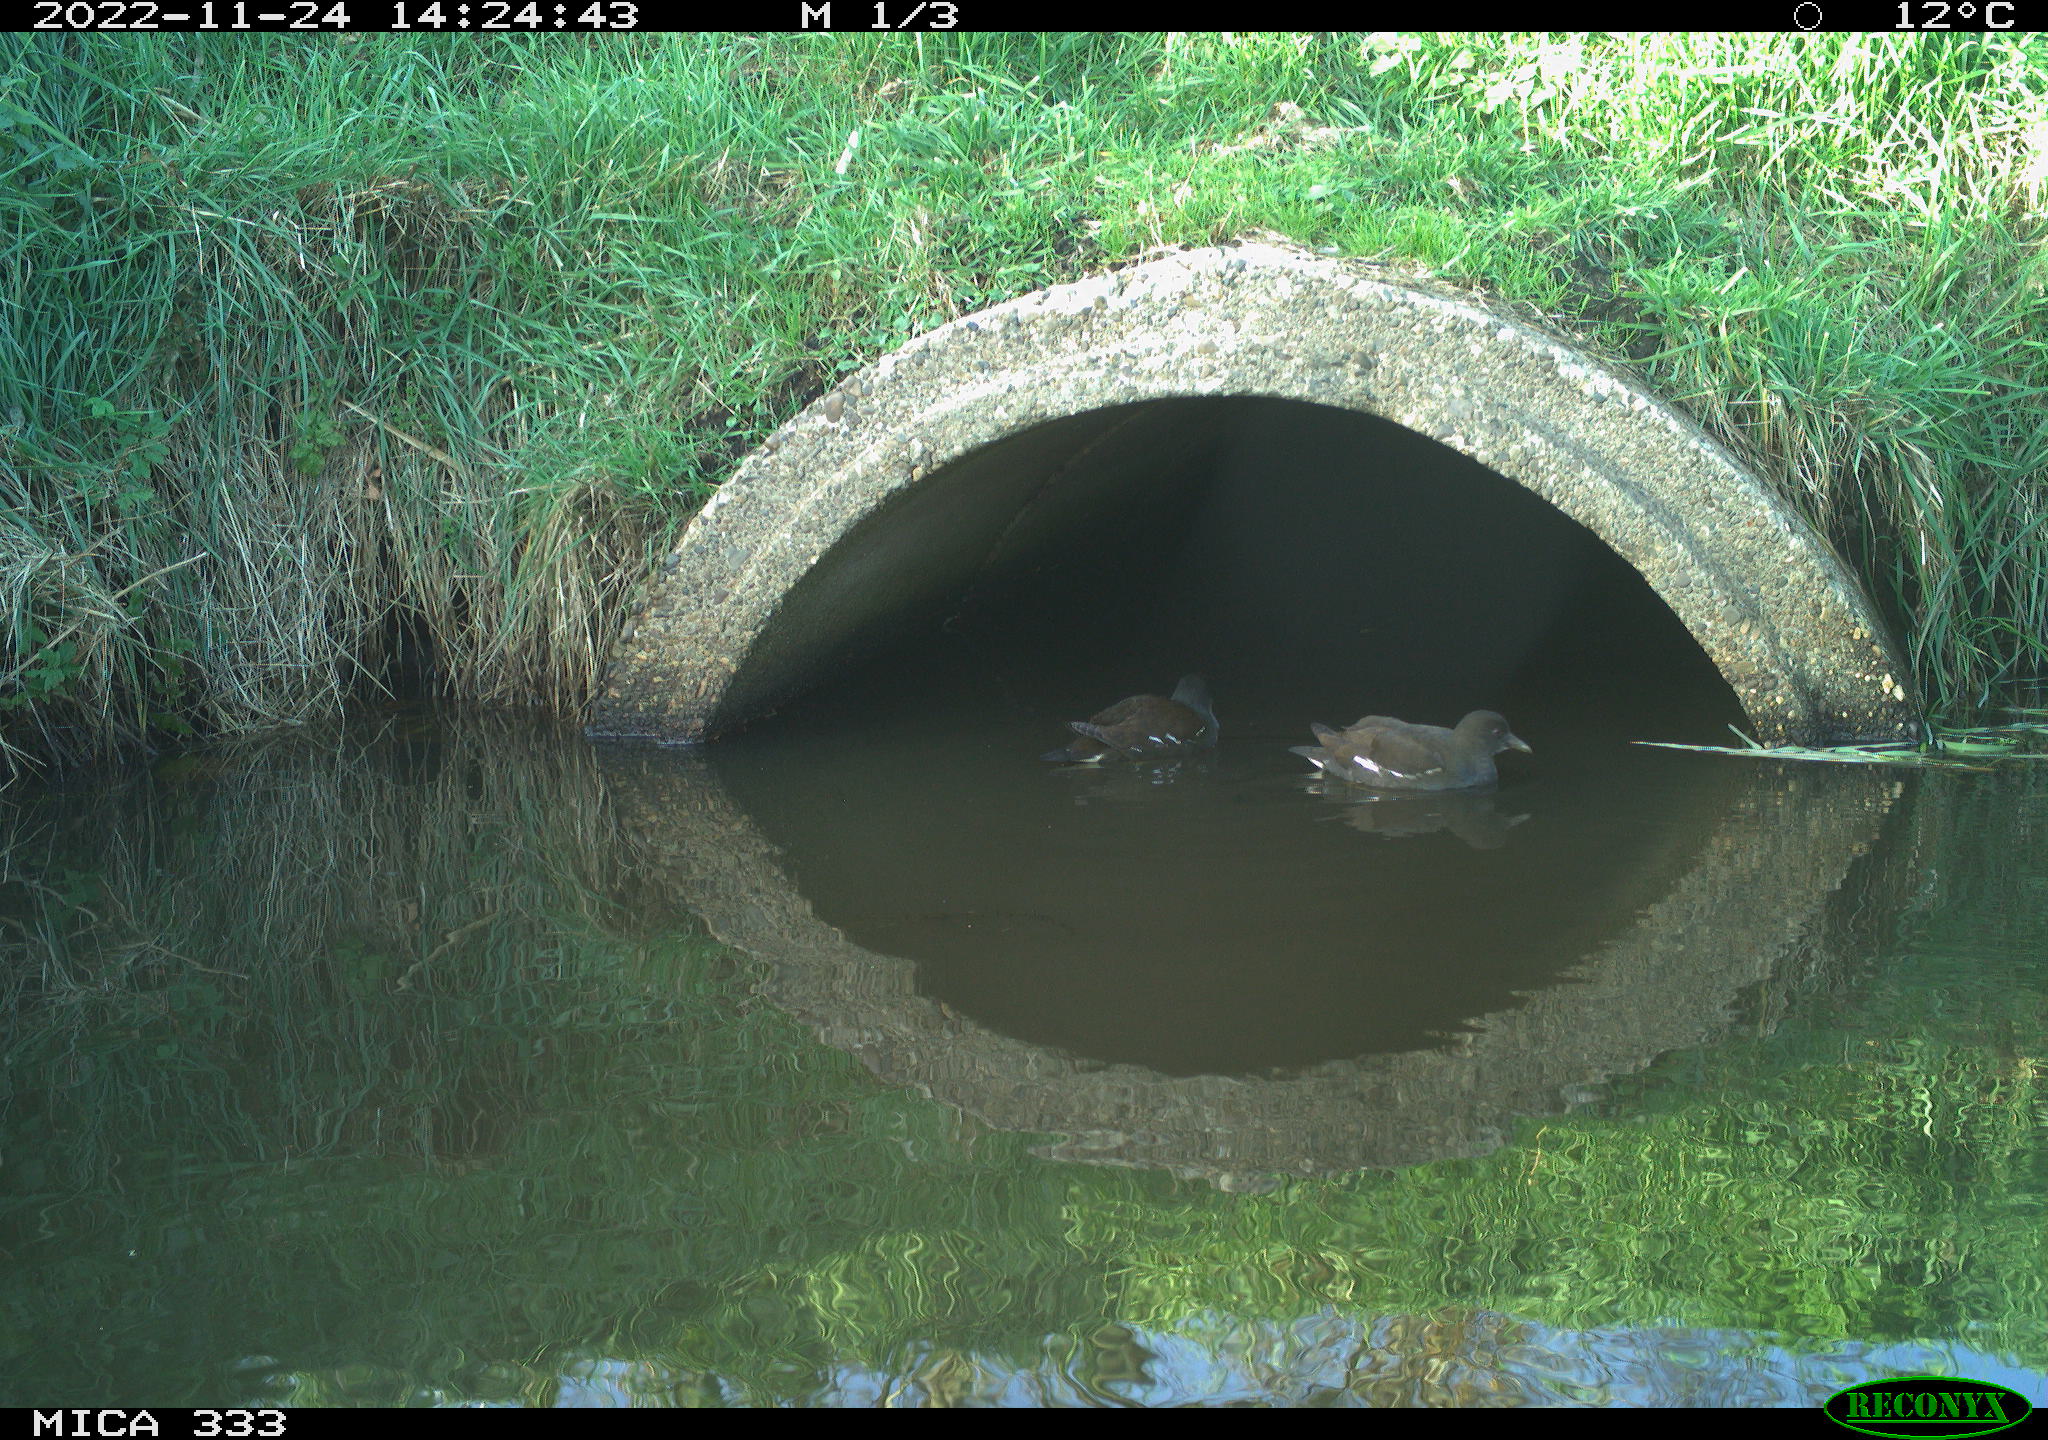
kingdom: Animalia
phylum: Chordata
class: Aves
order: Gruiformes
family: Rallidae
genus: Gallinula
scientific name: Gallinula chloropus
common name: Common moorhen
